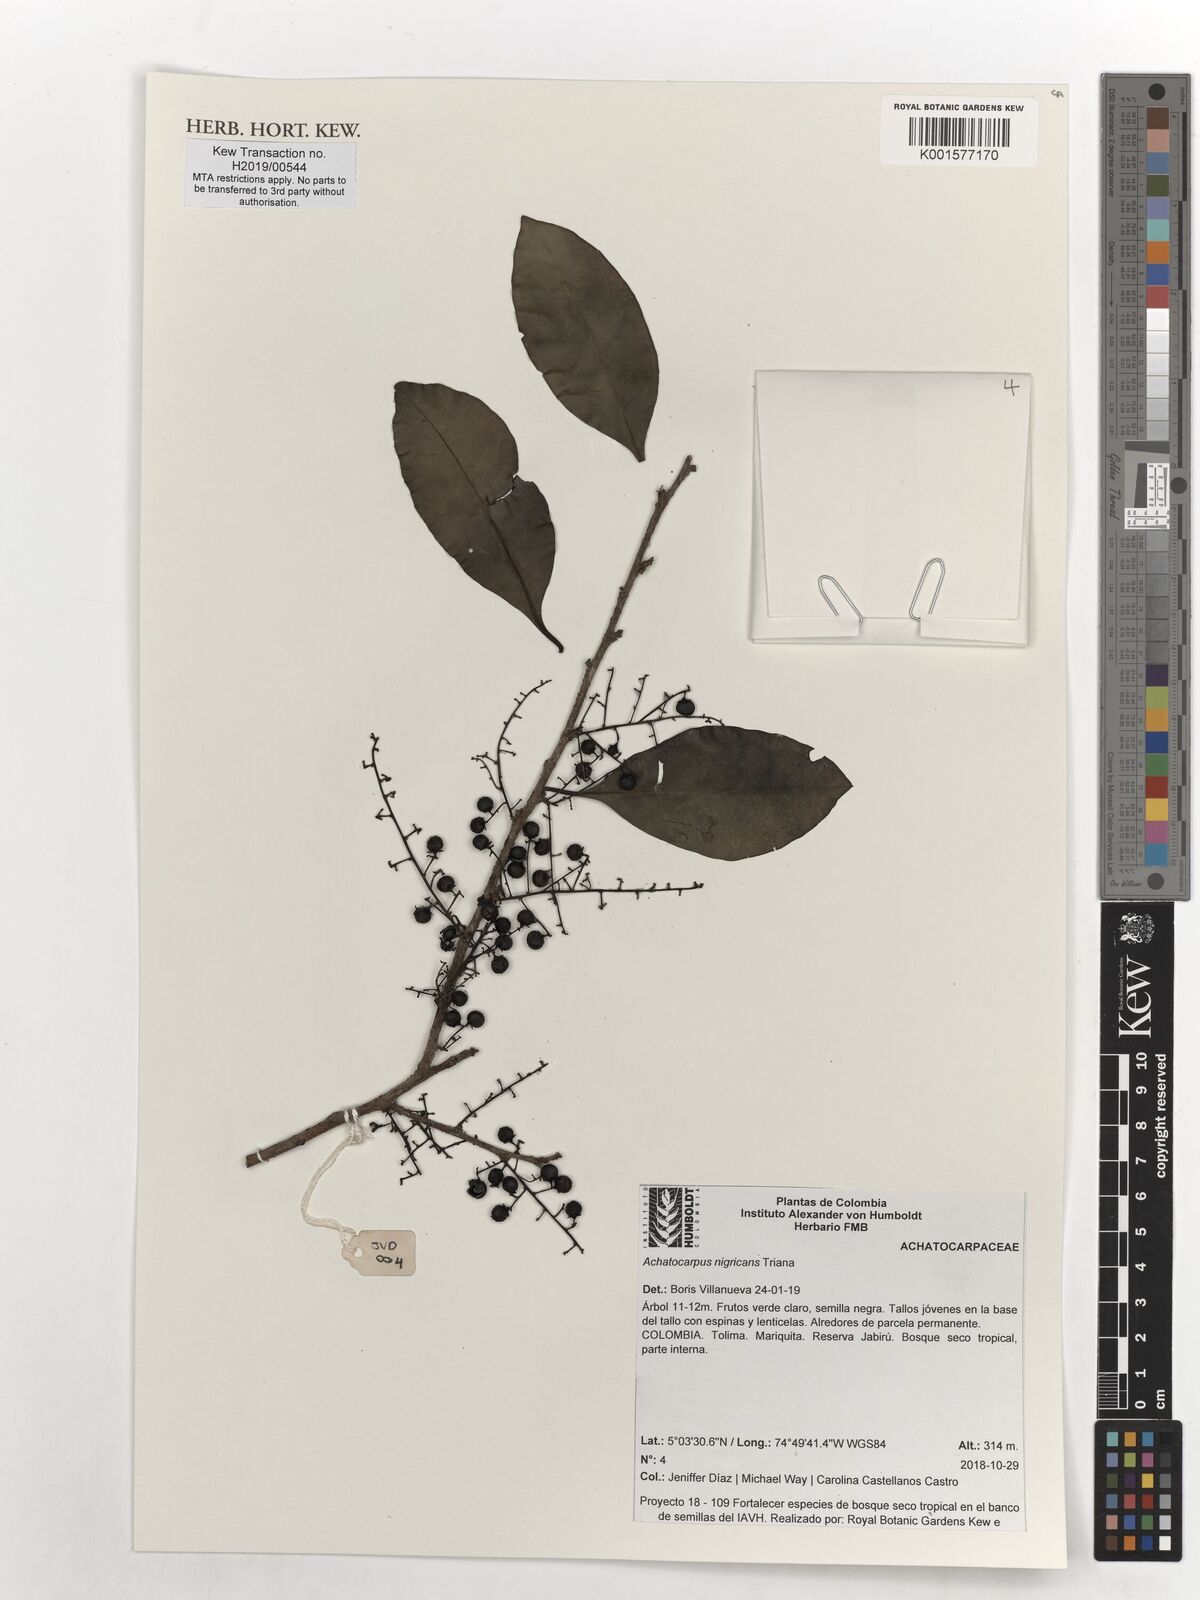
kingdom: Plantae
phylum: Tracheophyta
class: Magnoliopsida
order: Caryophyllales
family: Achatocarpaceae
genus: Achatocarpus
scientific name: Achatocarpus nigricans
